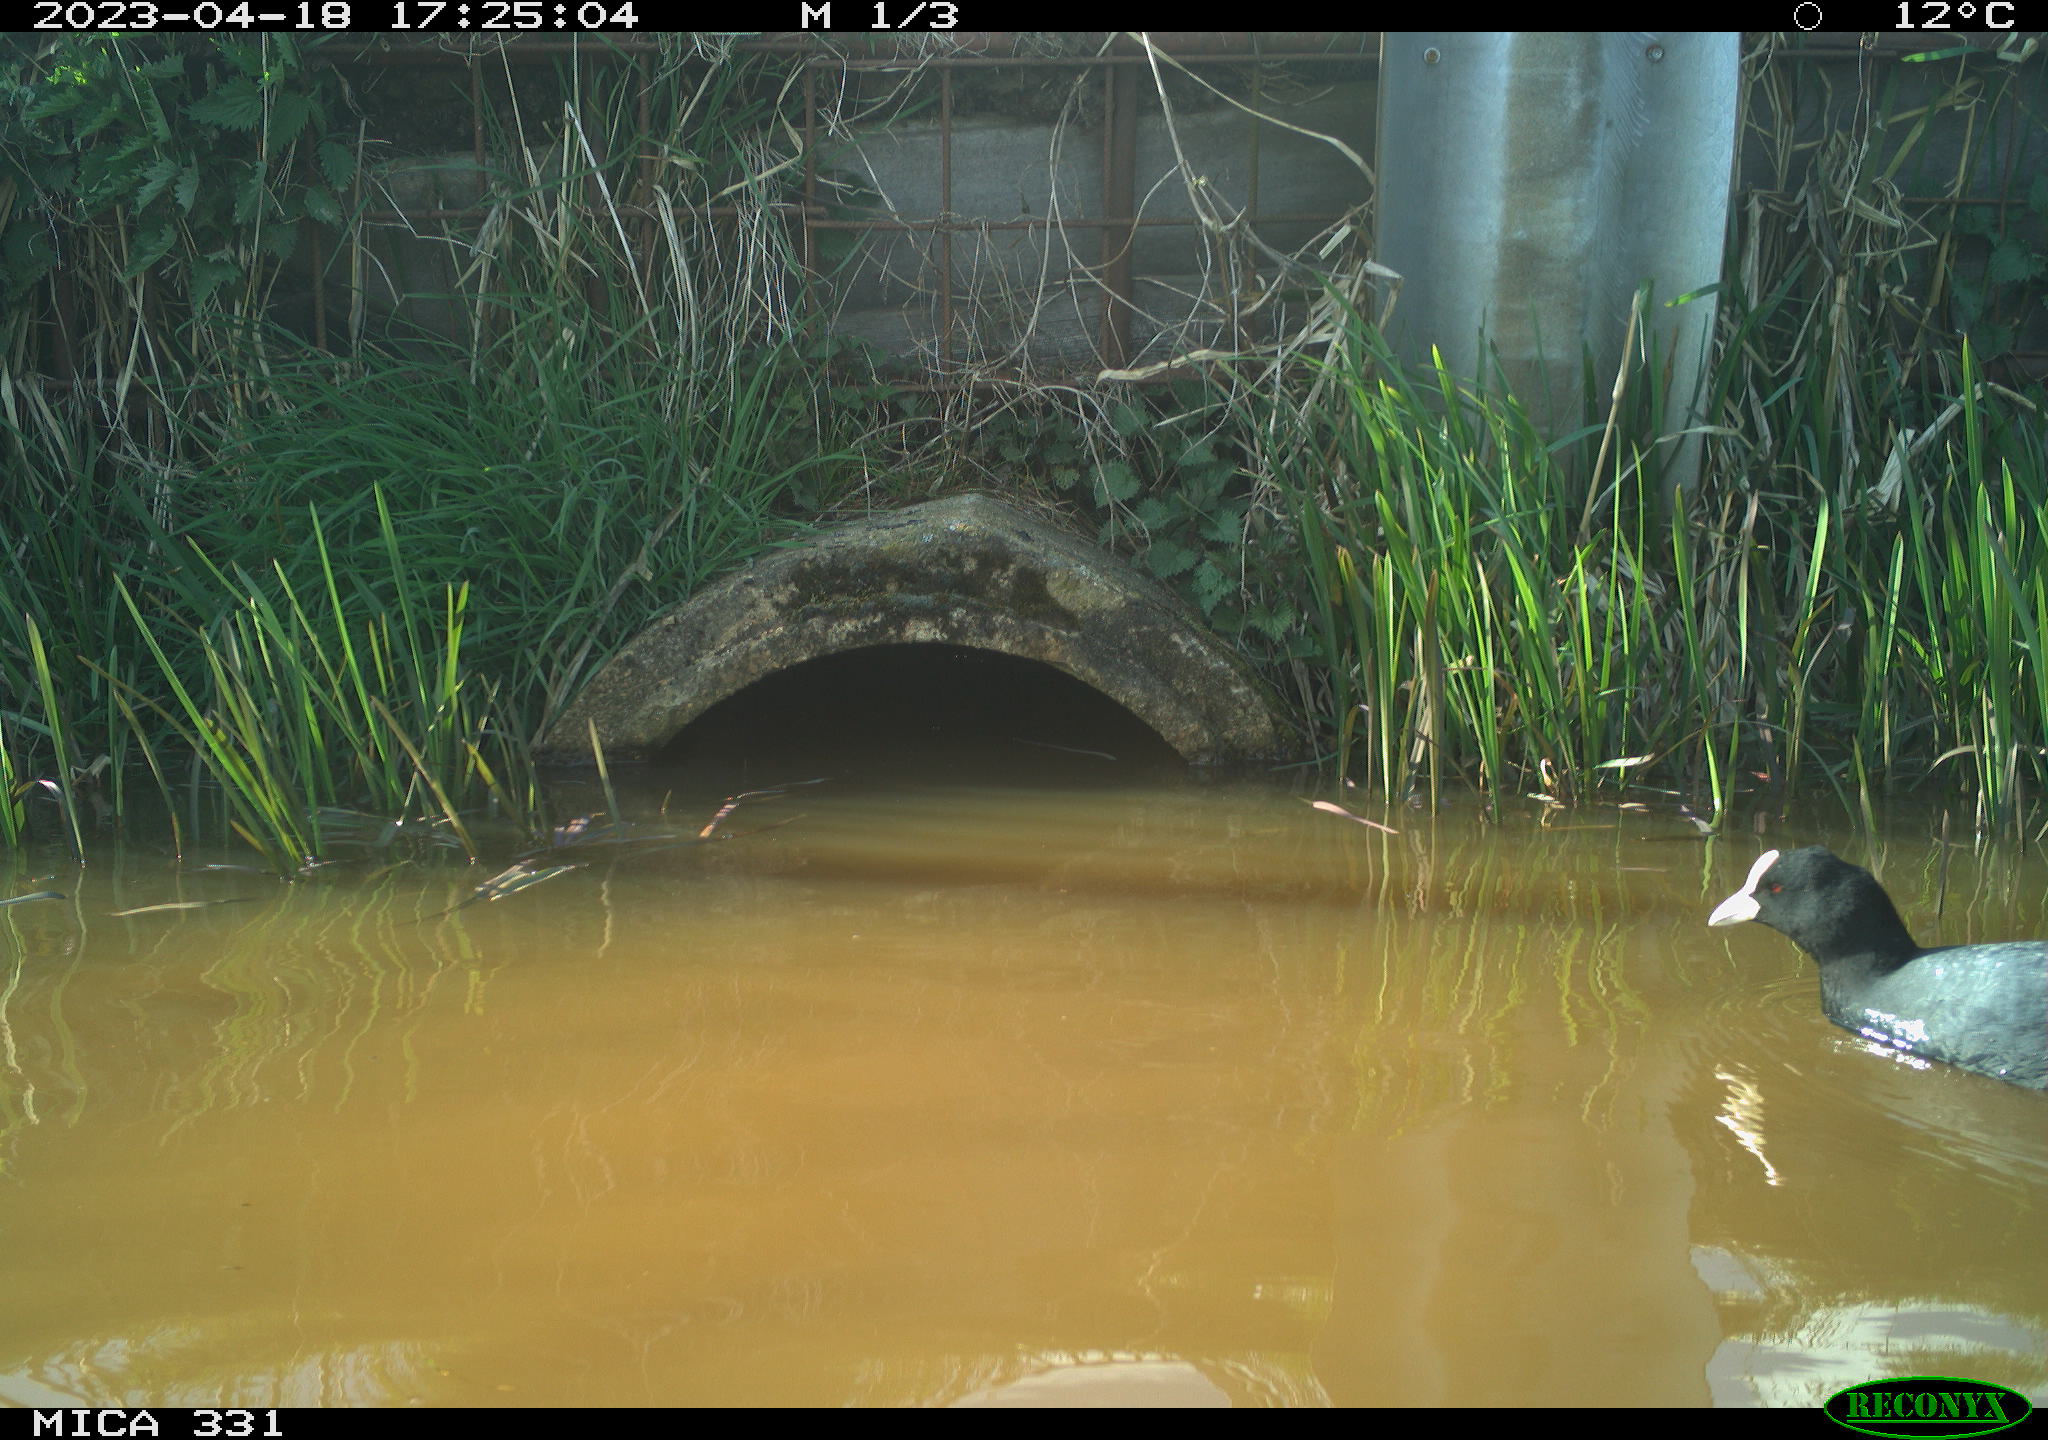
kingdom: Animalia
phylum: Chordata
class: Aves
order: Gruiformes
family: Rallidae
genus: Gallinula
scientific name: Gallinula chloropus
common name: Common moorhen
